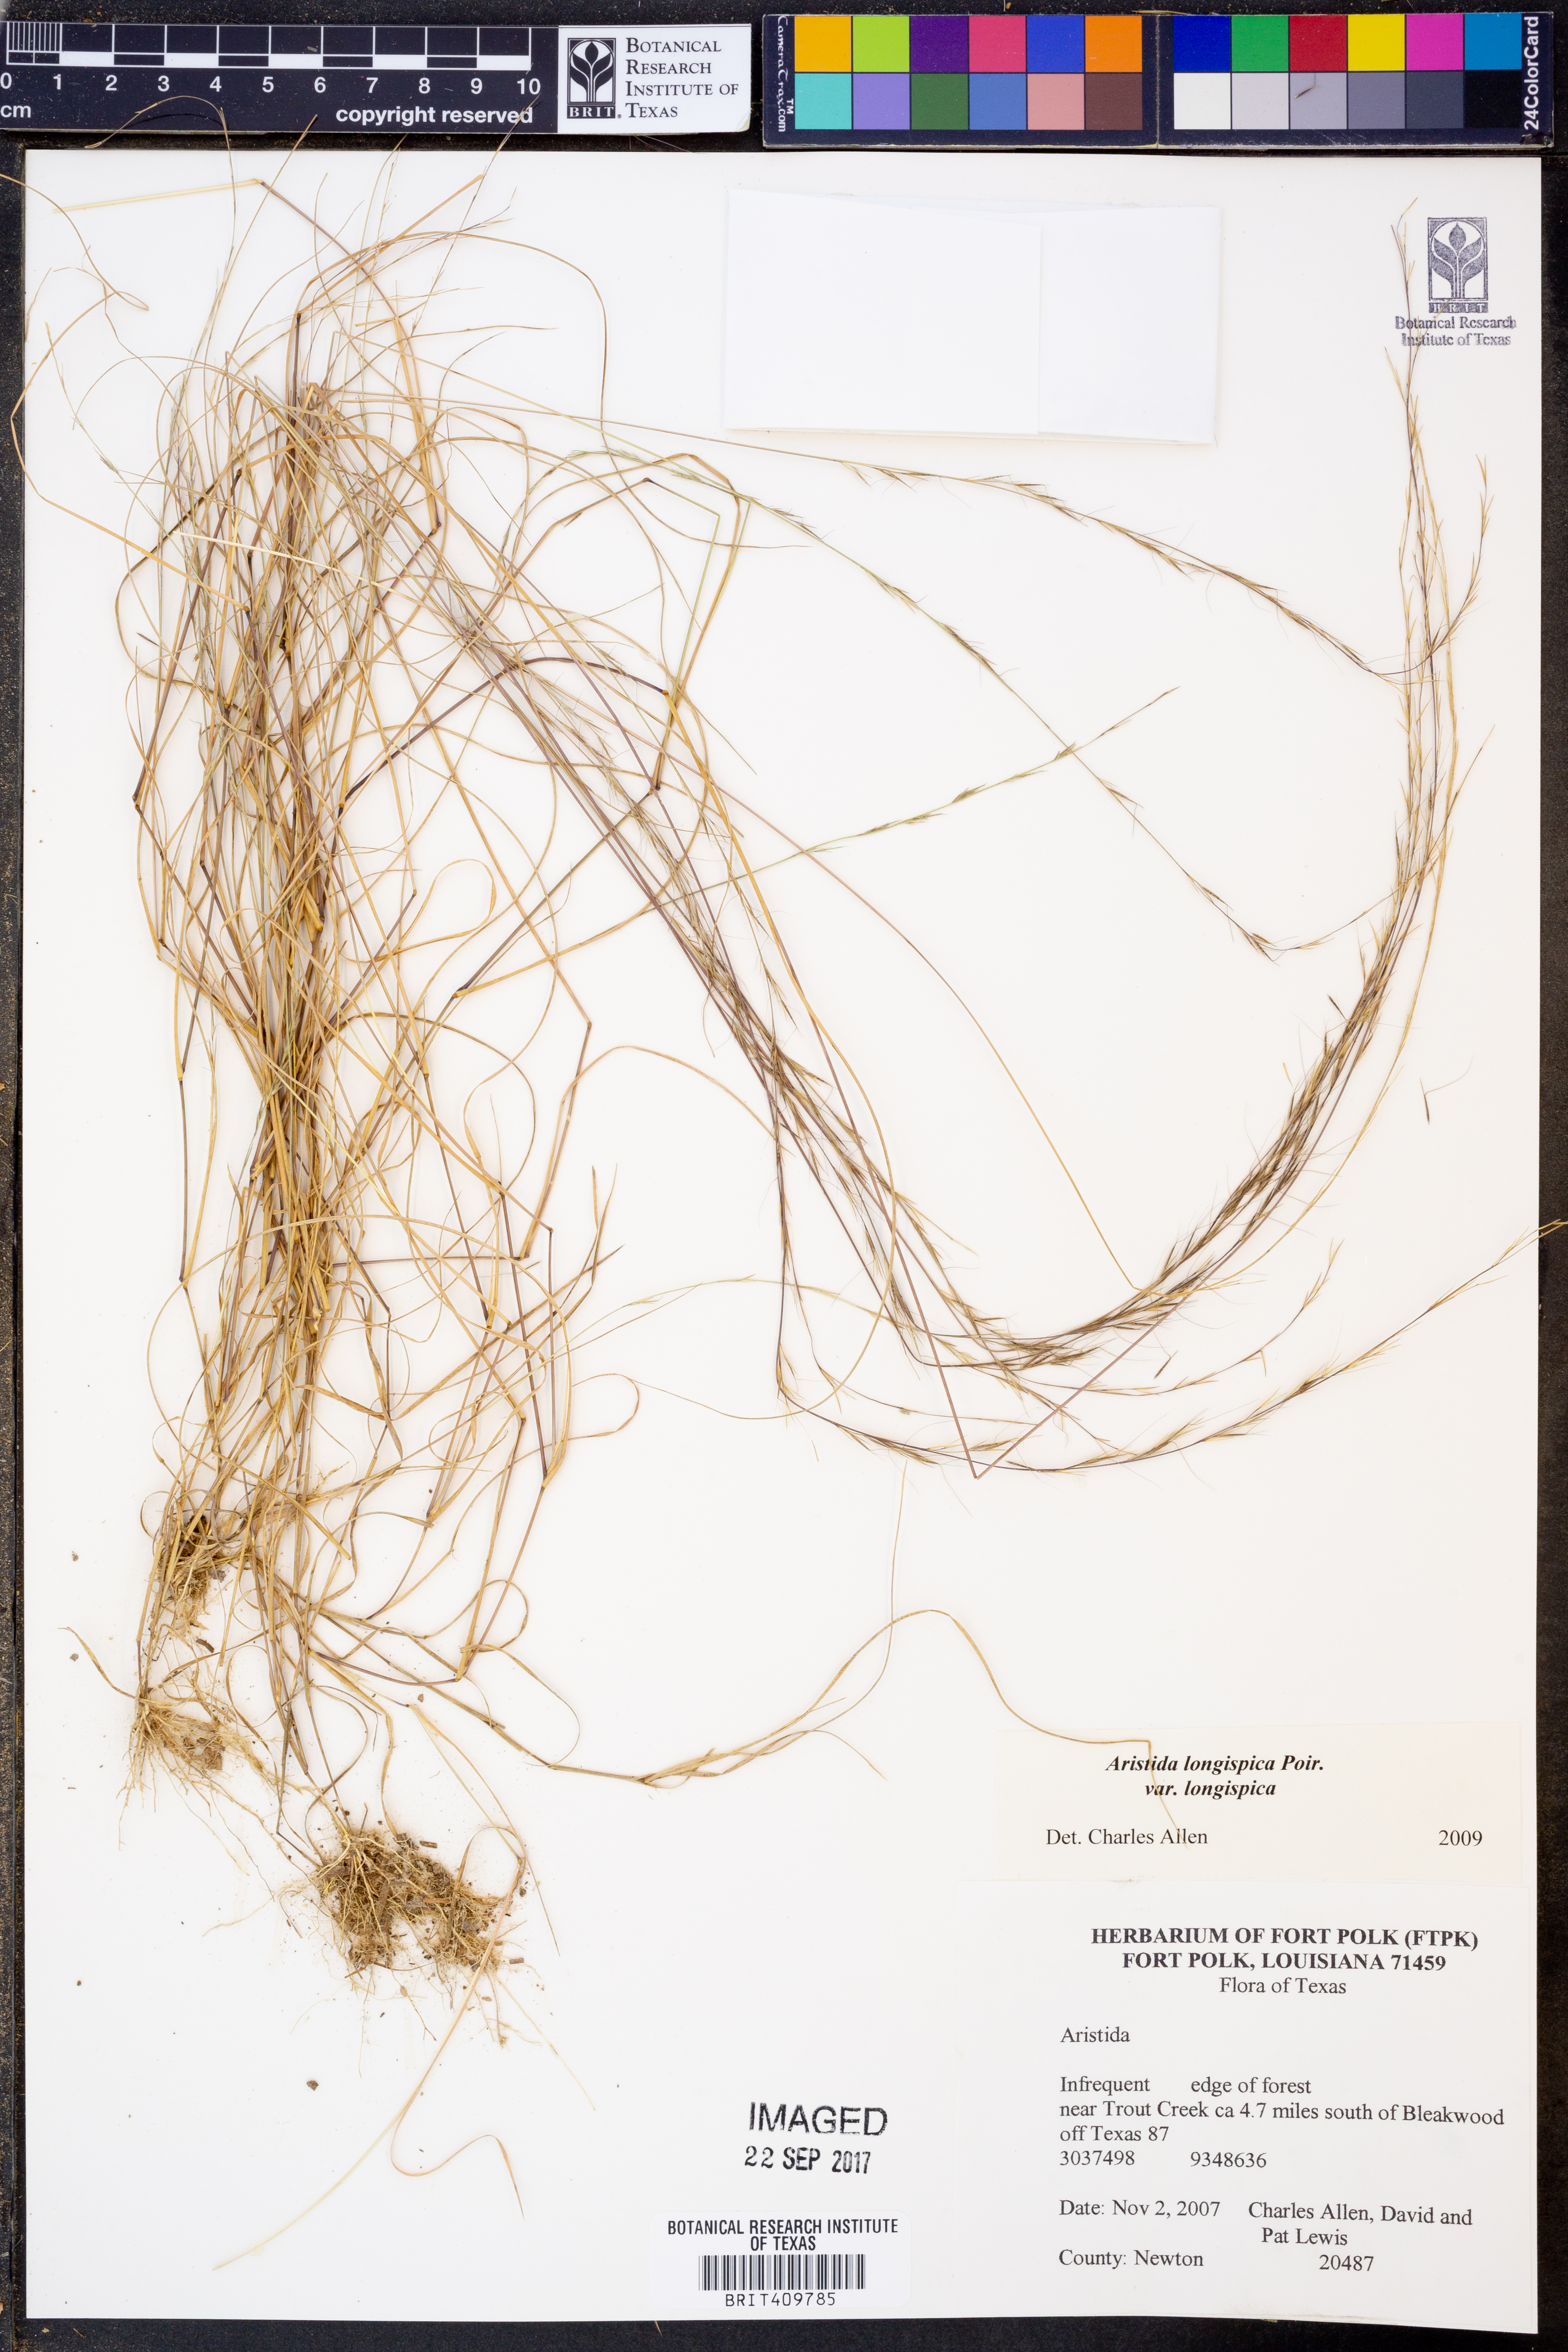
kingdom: Plantae
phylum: Tracheophyta
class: Liliopsida
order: Poales
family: Poaceae
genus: Aristida
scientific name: Aristida longespica
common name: Long-spiked triple-awned grass
